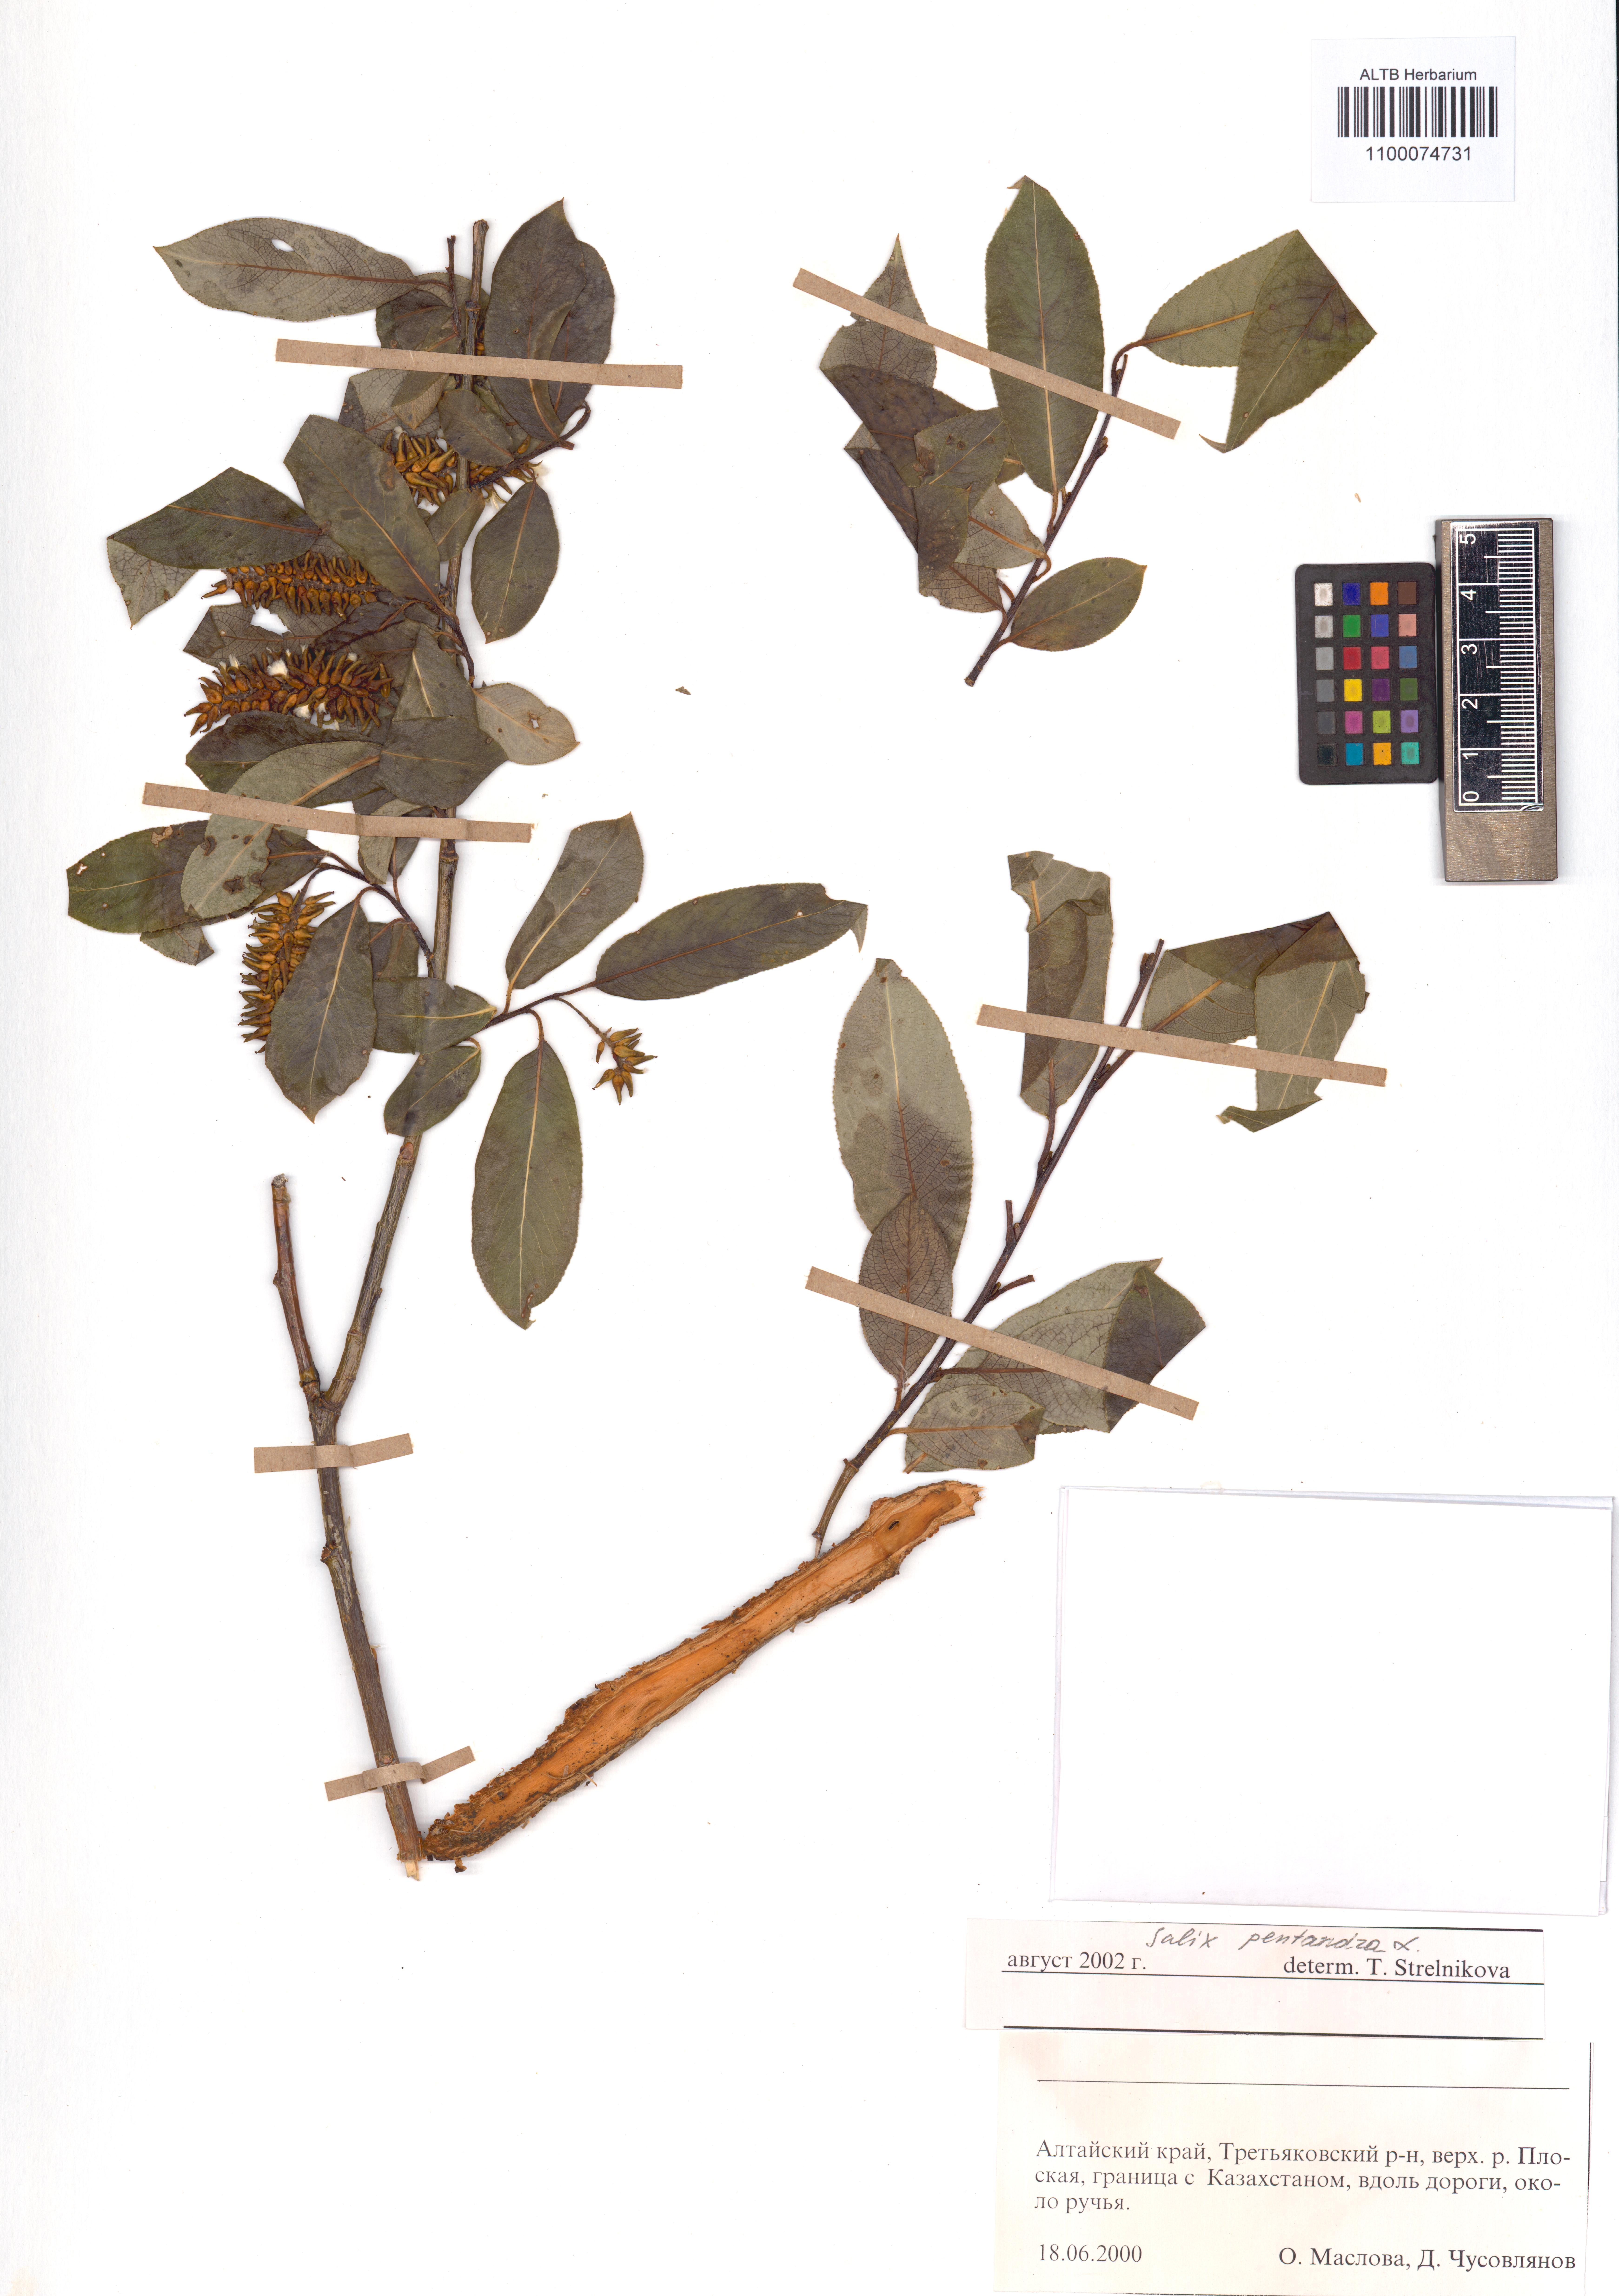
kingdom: Plantae
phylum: Tracheophyta
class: Magnoliopsida
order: Malpighiales
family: Salicaceae
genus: Salix
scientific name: Salix pentandra
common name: Bay willow
